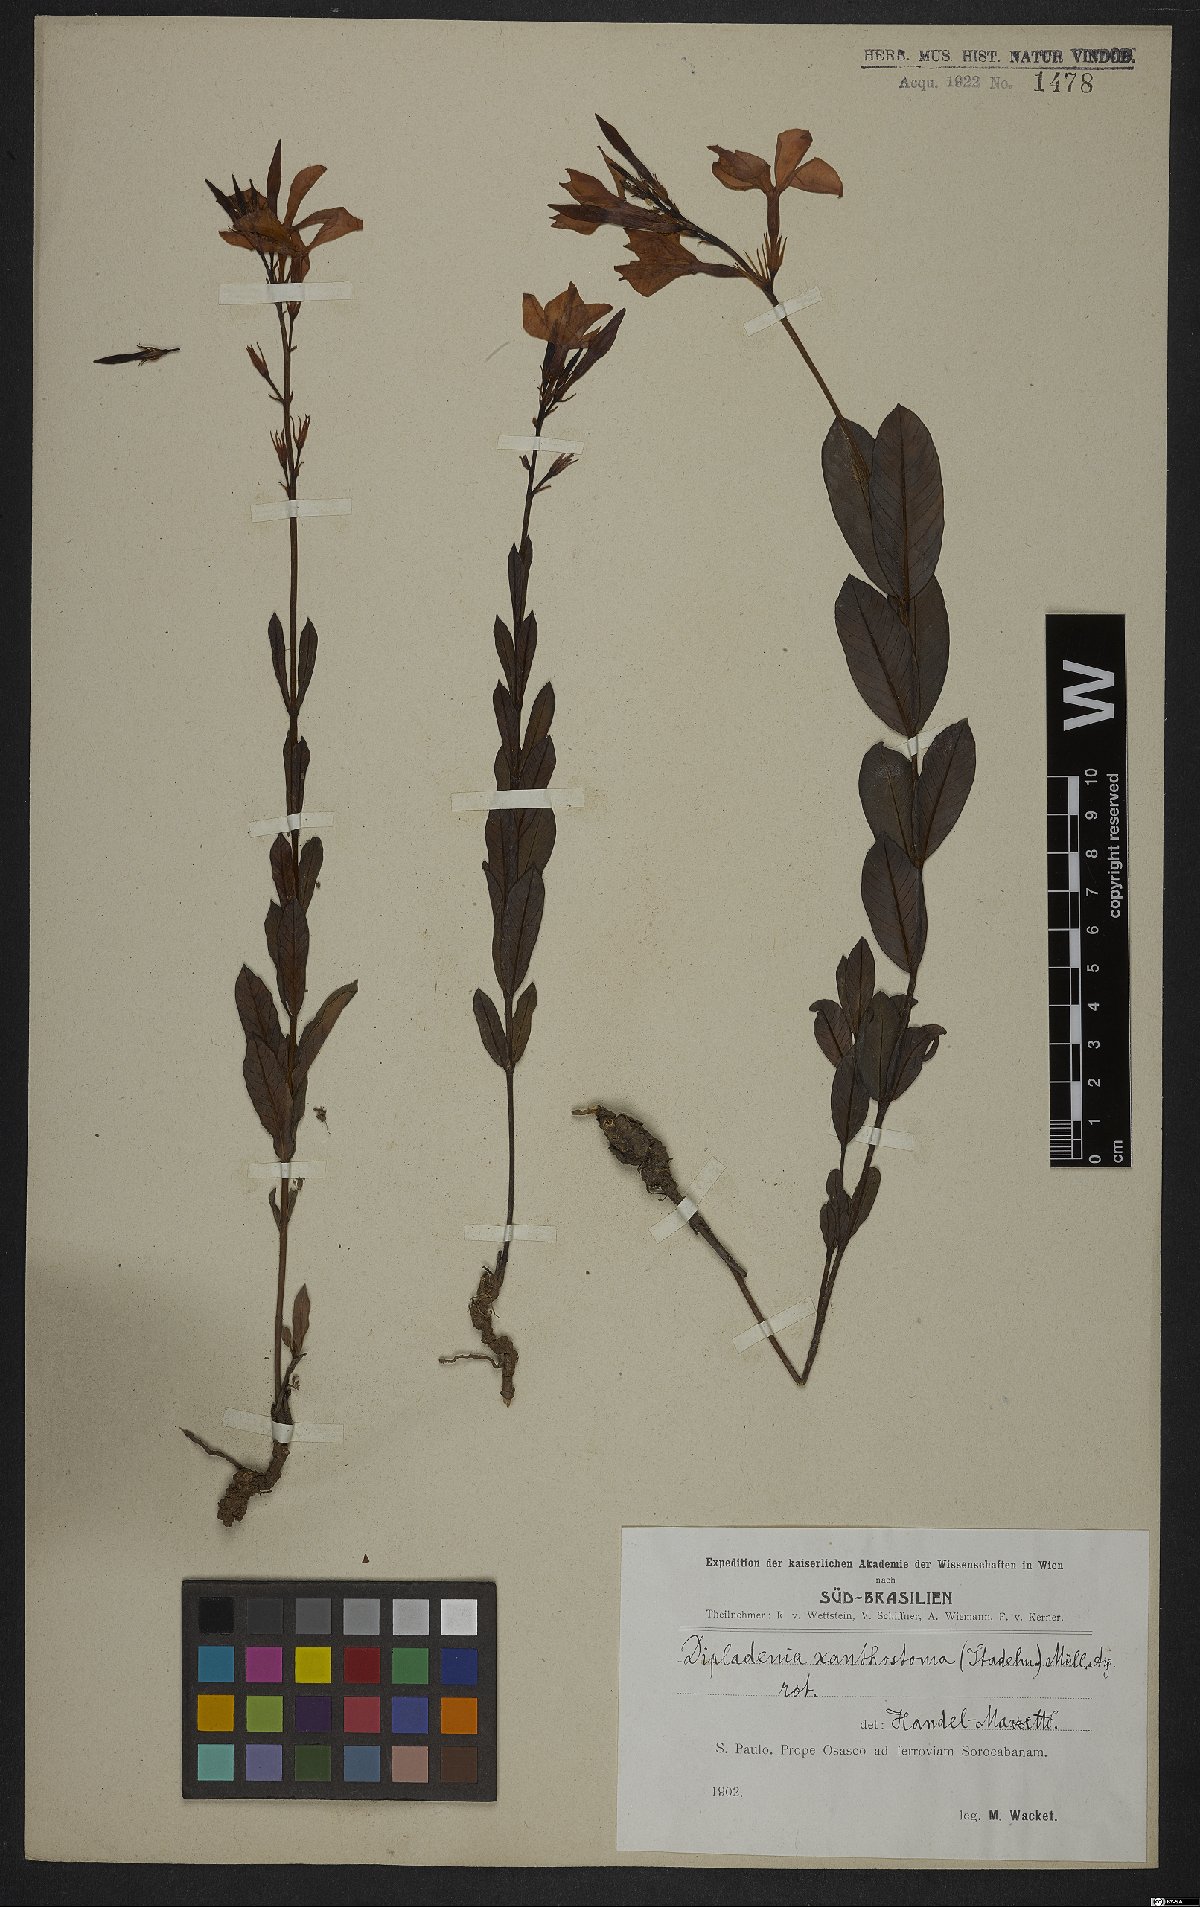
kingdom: Plantae
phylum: Tracheophyta
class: Magnoliopsida
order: Gentianales
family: Apocynaceae
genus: Mandevilla
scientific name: Mandevilla coccinea
